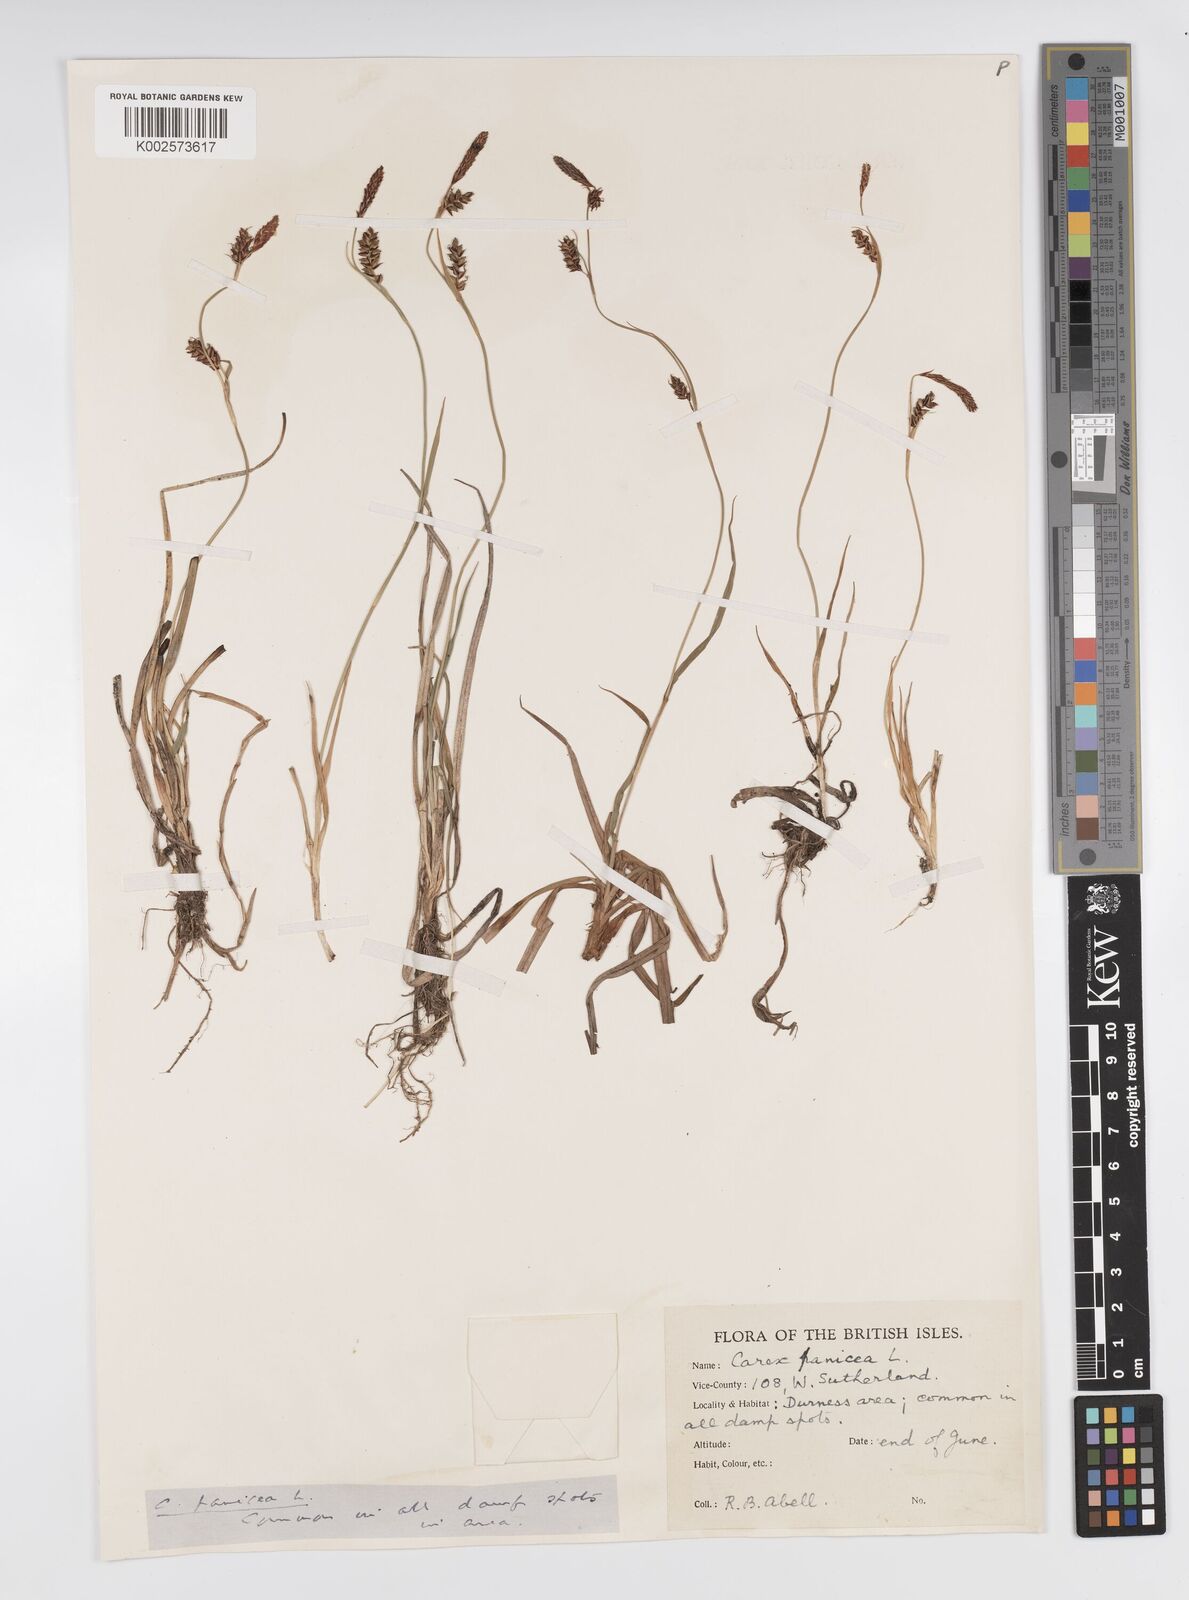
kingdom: Plantae
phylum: Tracheophyta
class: Liliopsida
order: Poales
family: Cyperaceae
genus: Carex
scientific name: Carex panicea
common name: Carnation sedge
